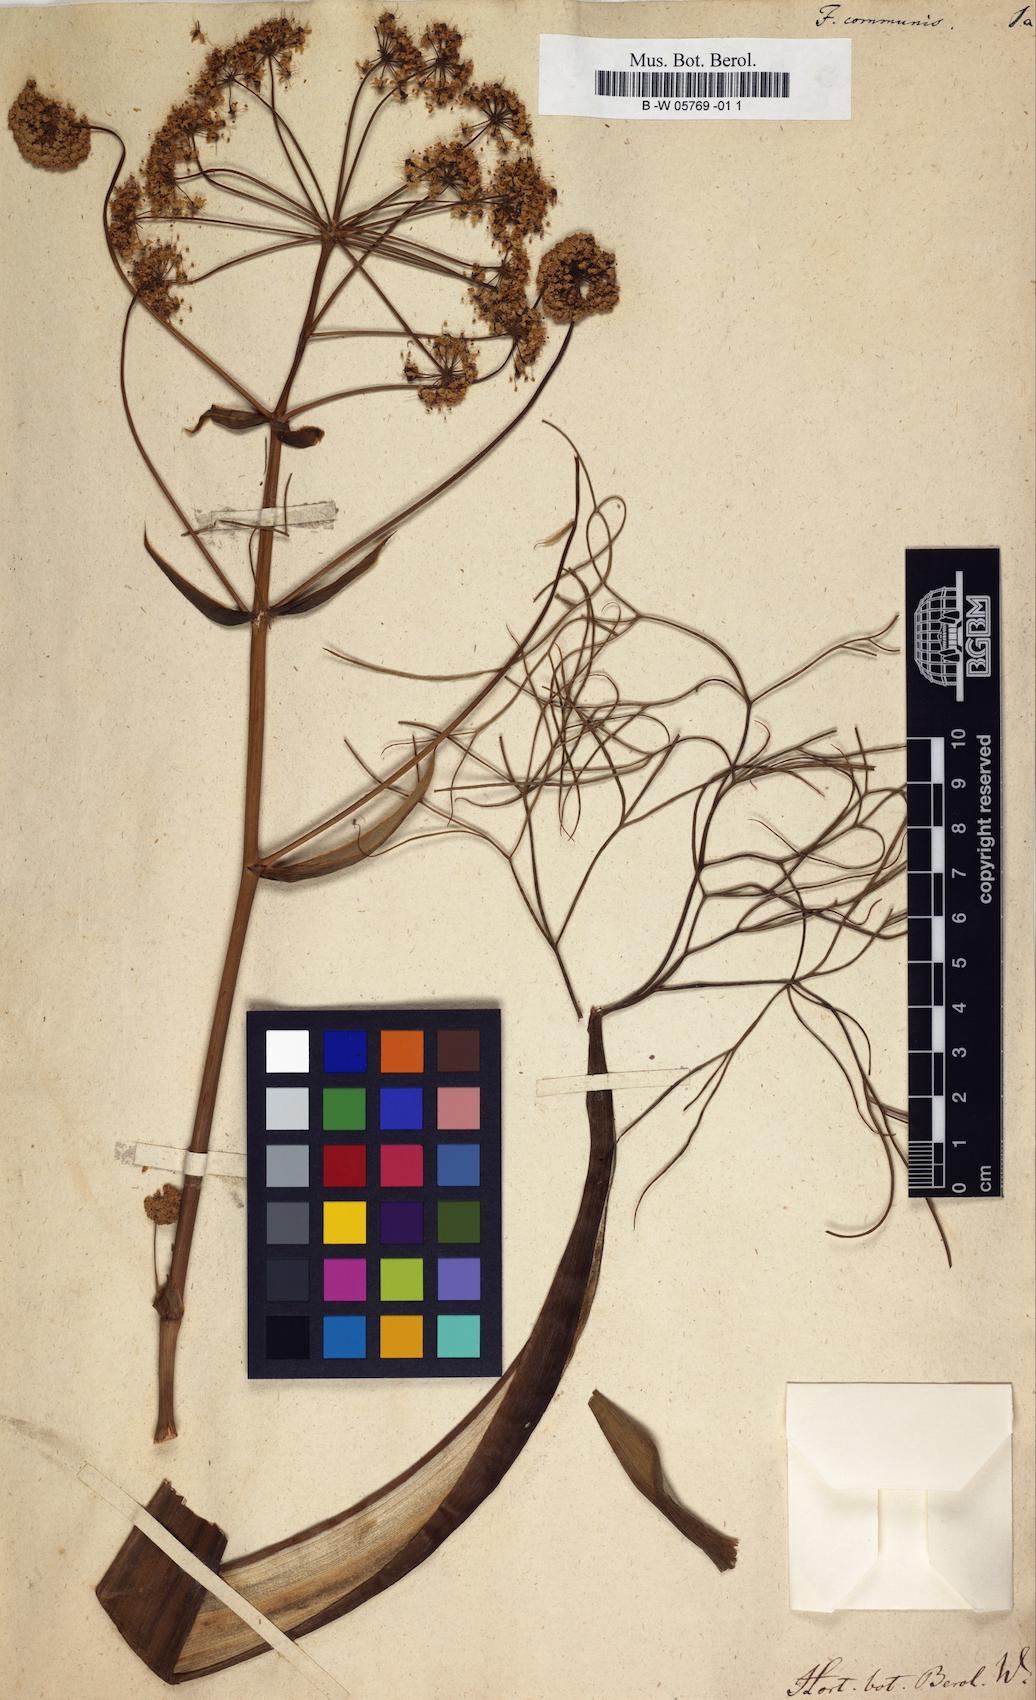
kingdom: Plantae
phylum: Tracheophyta
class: Magnoliopsida
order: Apiales
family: Apiaceae
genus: Ferula
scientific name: Ferula communis
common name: Giant fennel
